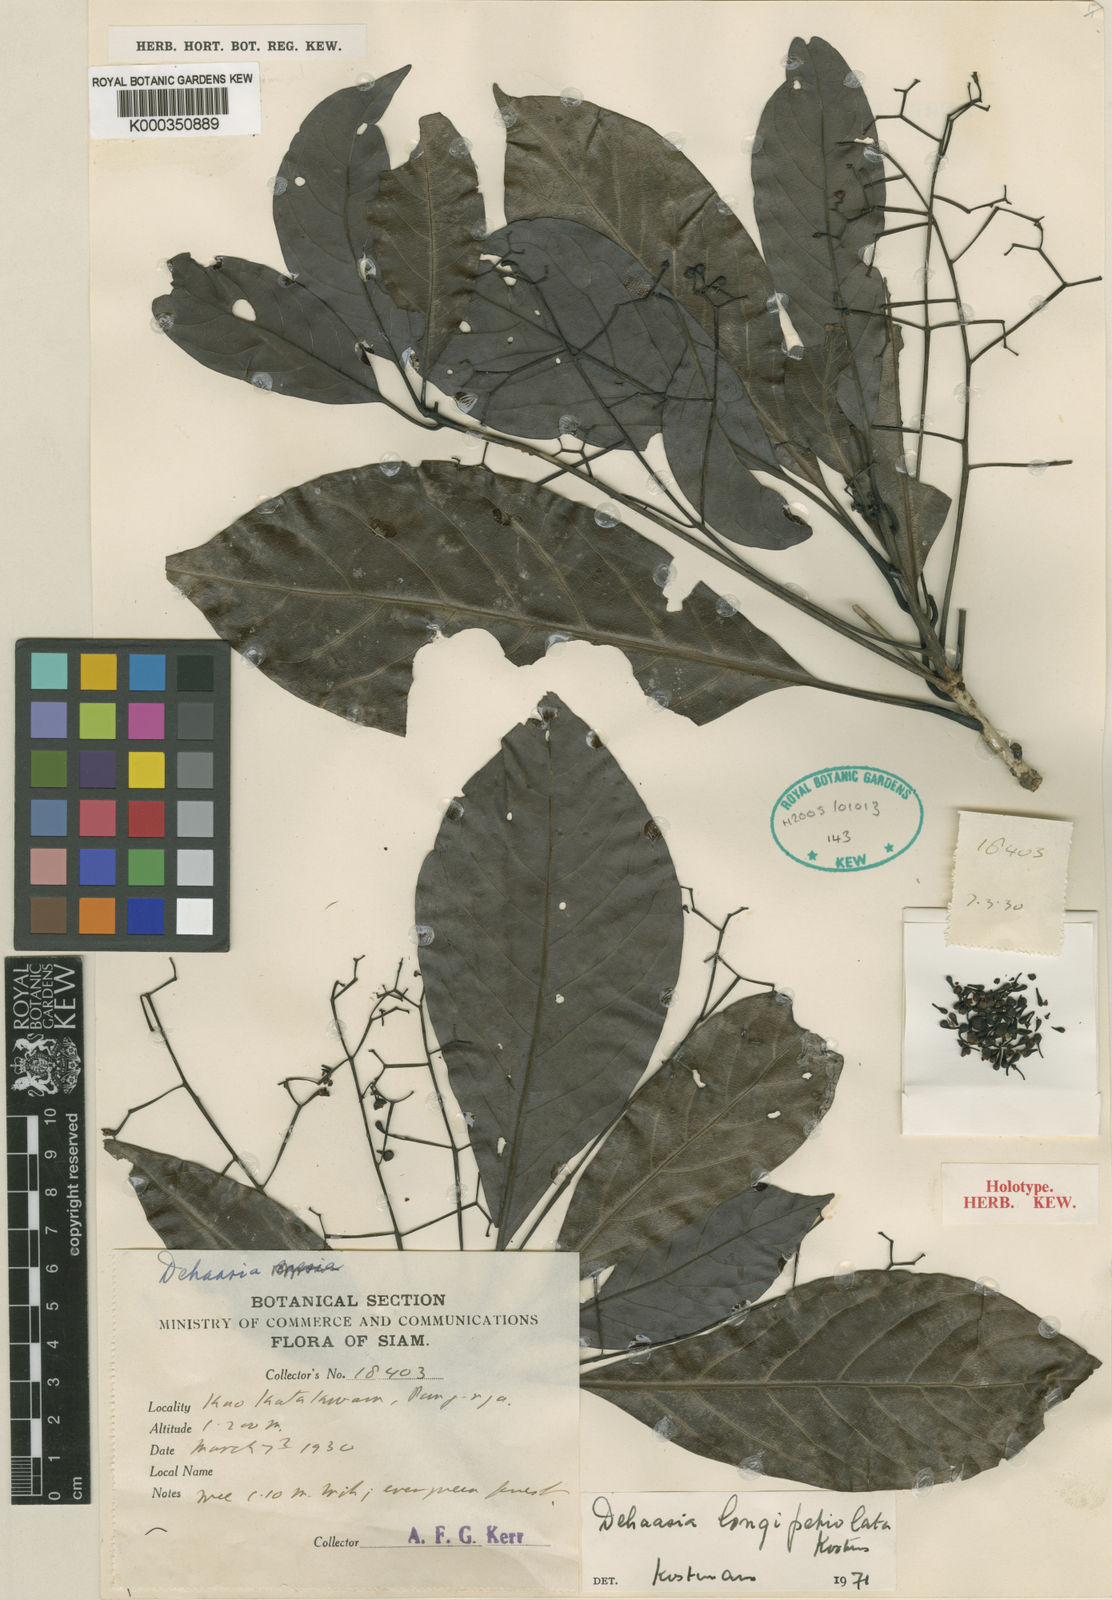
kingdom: Plantae
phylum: Tracheophyta
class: Magnoliopsida
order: Laurales
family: Lauraceae
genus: Dehaasia
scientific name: Dehaasia longipetiolata
